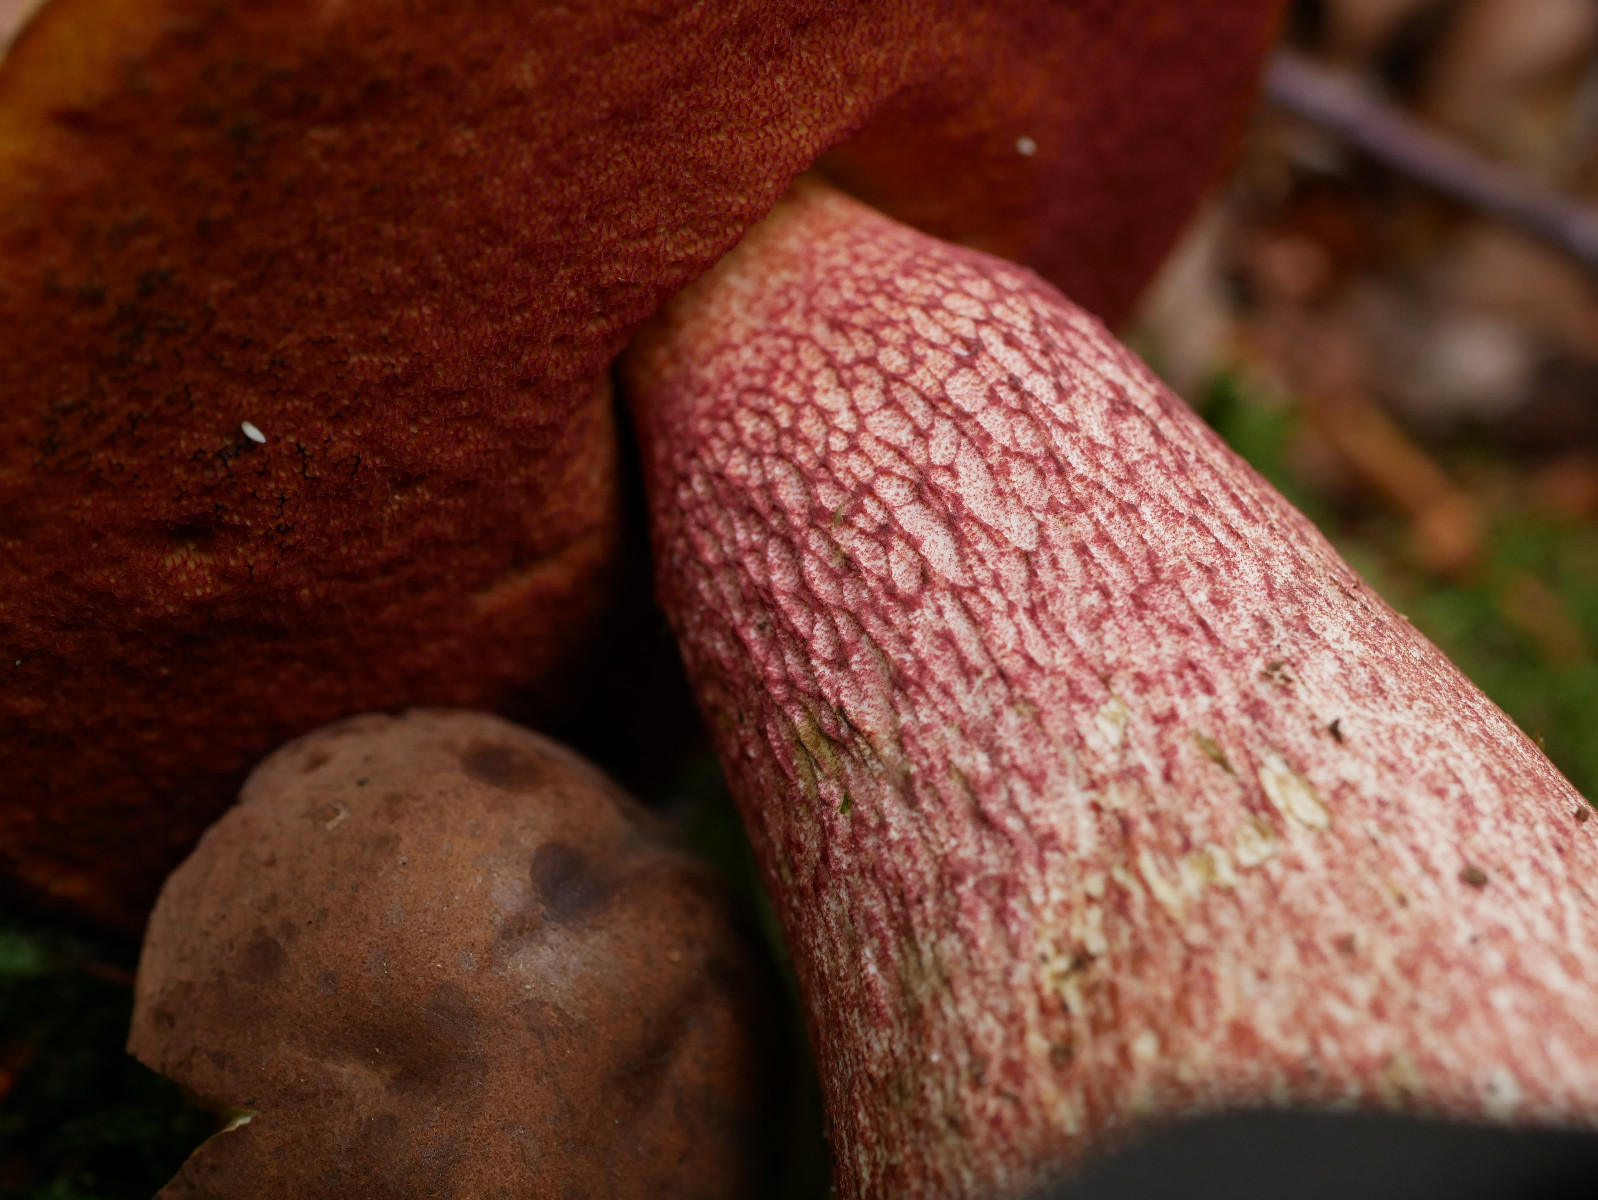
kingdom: Fungi
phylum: Basidiomycota
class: Agaricomycetes
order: Boletales
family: Boletaceae
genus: Suillellus
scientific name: Suillellus luridus
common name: netstokket indigorørhat
